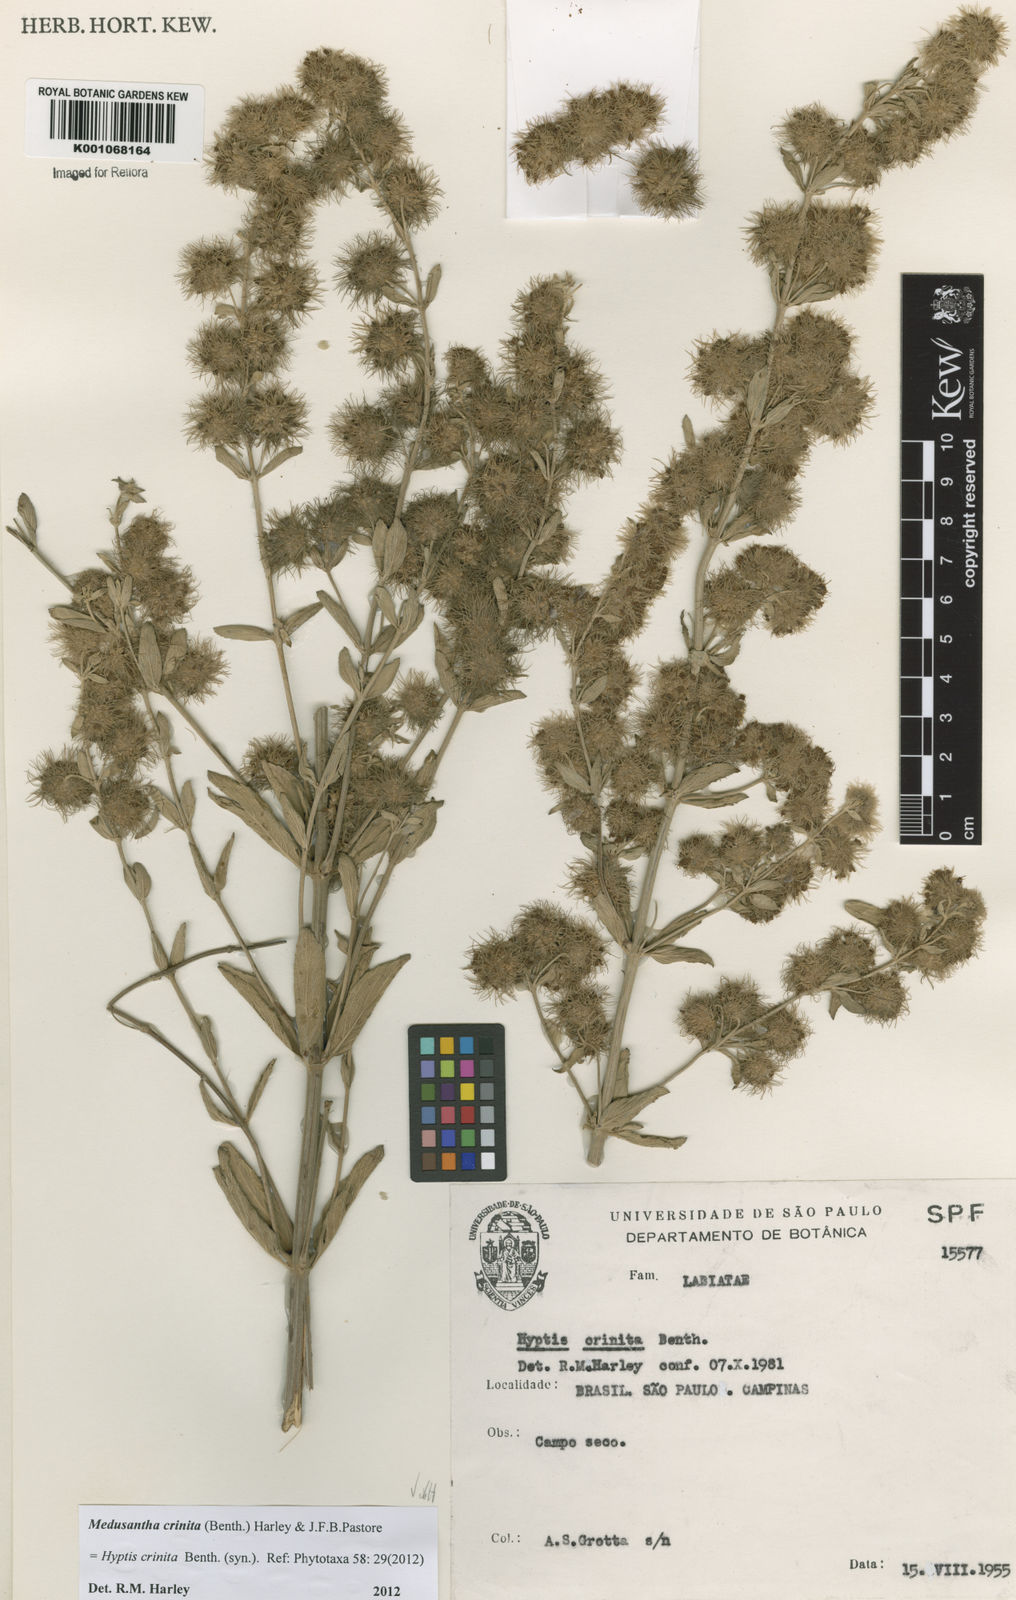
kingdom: Plantae
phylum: Tracheophyta
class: Magnoliopsida
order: Lamiales
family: Lamiaceae
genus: Medusantha
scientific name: Medusantha crinita
